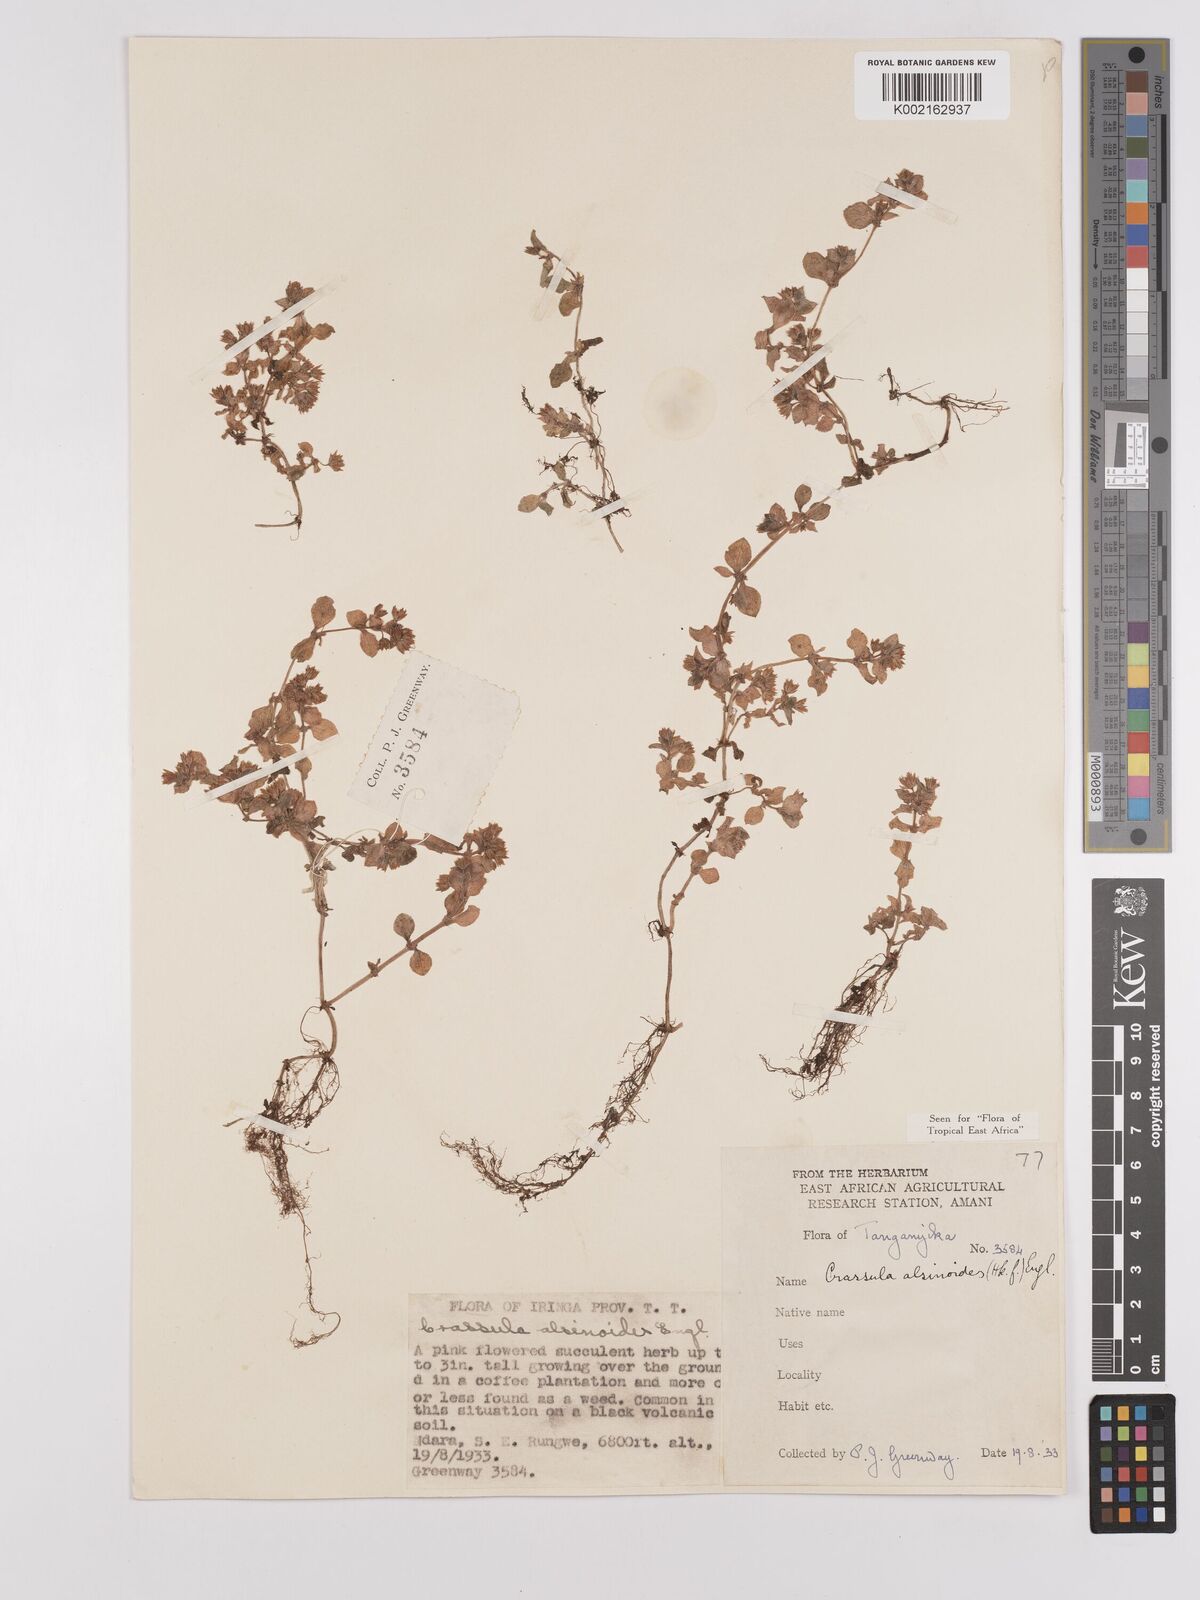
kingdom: Plantae
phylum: Tracheophyta
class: Magnoliopsida
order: Saxifragales
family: Crassulaceae
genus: Crassula
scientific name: Crassula alsinoides
